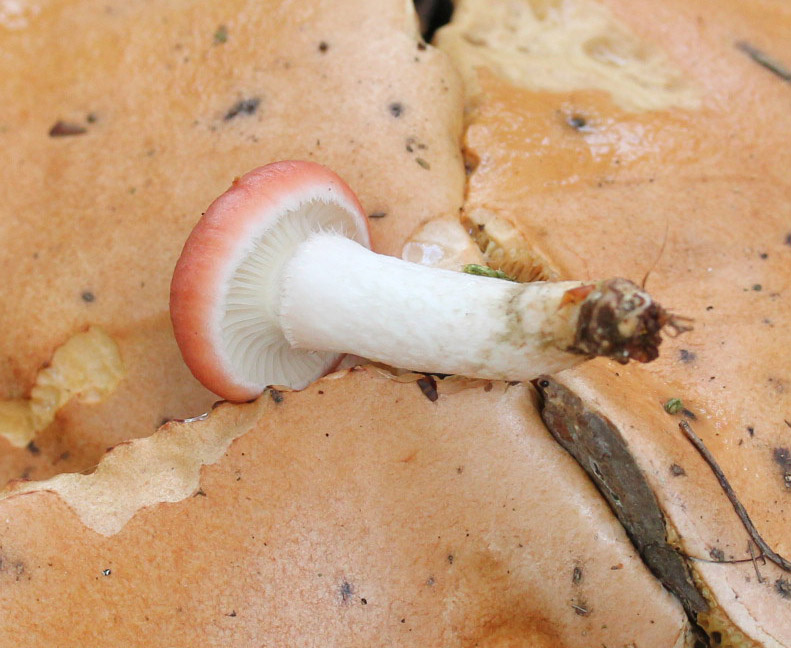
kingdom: Fungi
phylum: Basidiomycota
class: Agaricomycetes
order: Boletales
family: Gomphidiaceae
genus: Gomphidius
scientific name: Gomphidius roseus
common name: rosenrød slimslør
